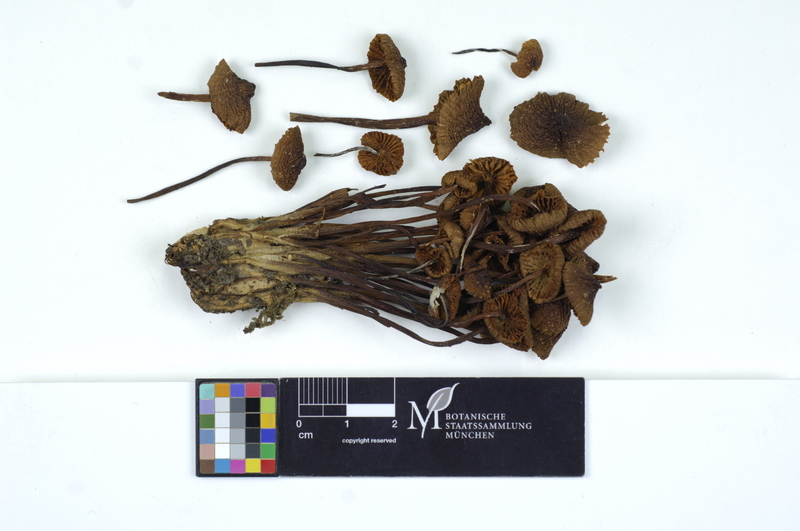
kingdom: Plantae
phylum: Tracheophyta
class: Magnoliopsida
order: Fagales
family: Fagaceae
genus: Quercus
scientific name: Quercus
